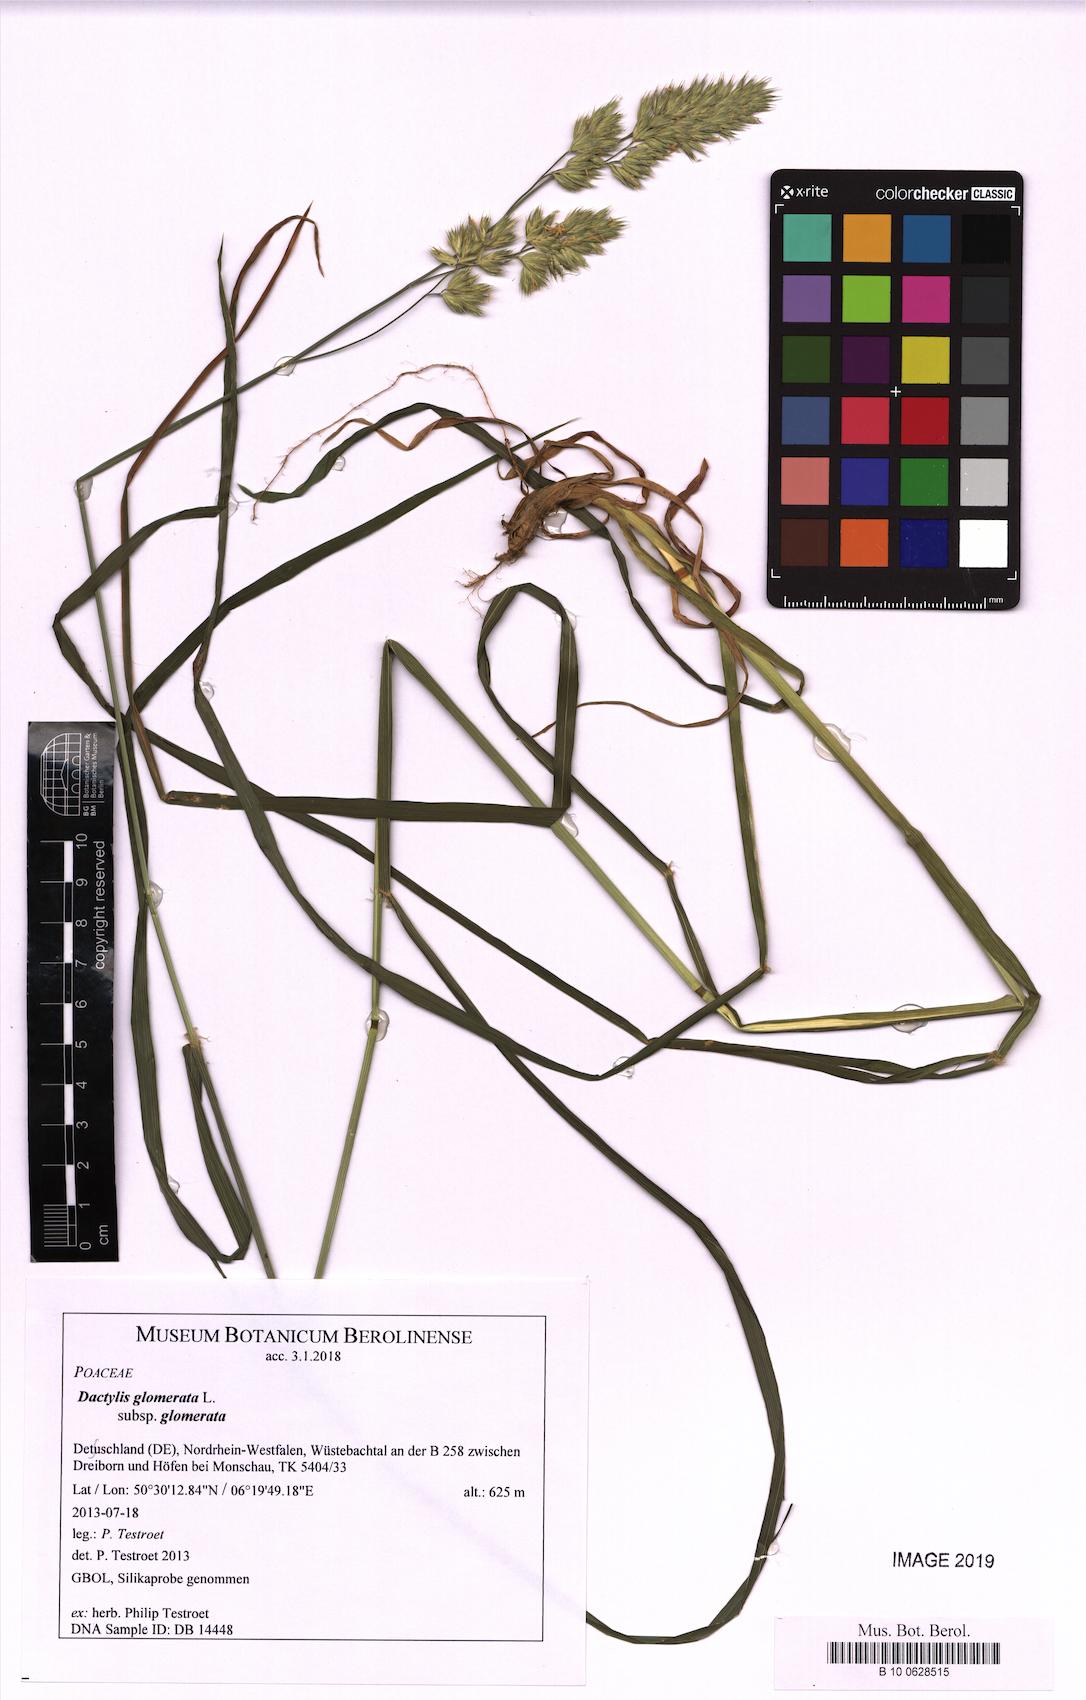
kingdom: Plantae
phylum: Tracheophyta
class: Liliopsida
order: Poales
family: Poaceae
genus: Dactylis
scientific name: Dactylis glomerata
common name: Orchardgrass
